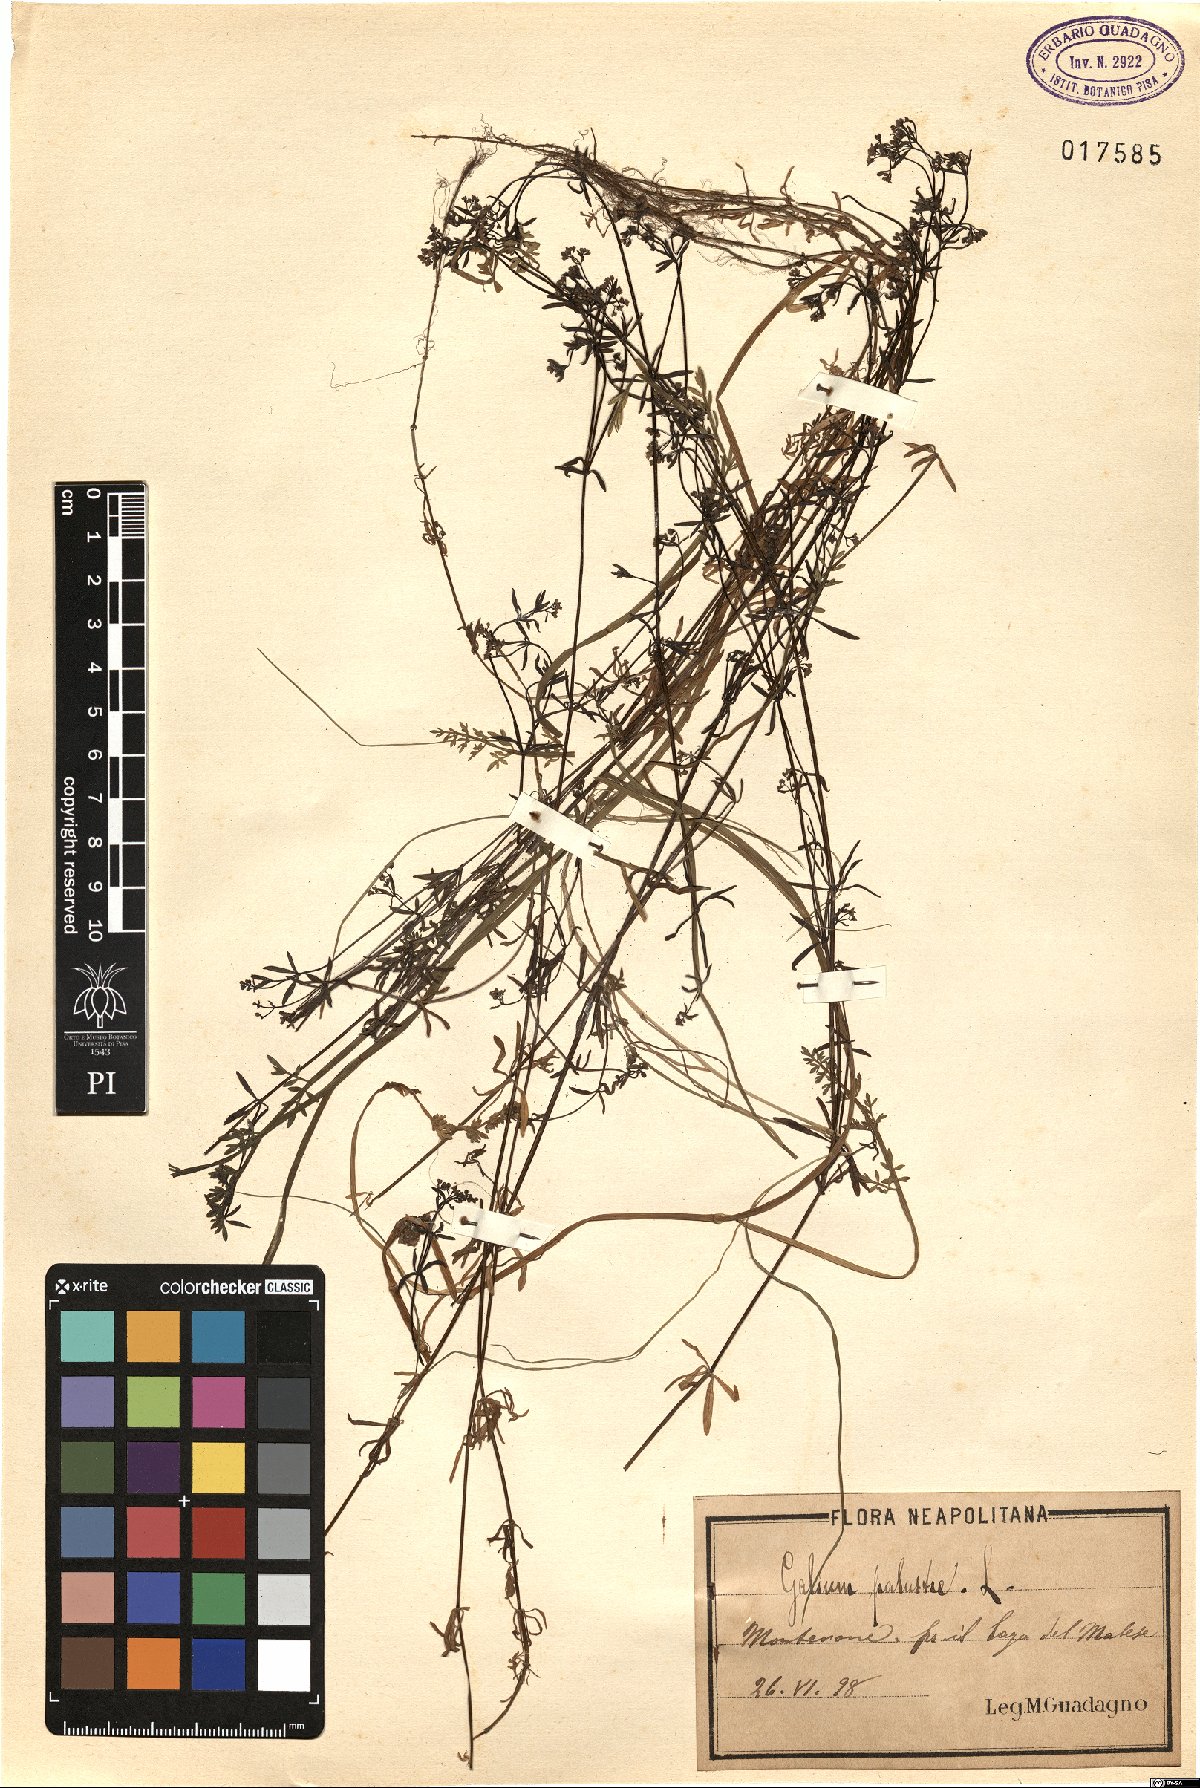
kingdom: Plantae
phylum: Tracheophyta
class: Magnoliopsida
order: Gentianales
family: Rubiaceae
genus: Galium
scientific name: Galium palustre
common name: Common marsh-bedstraw
